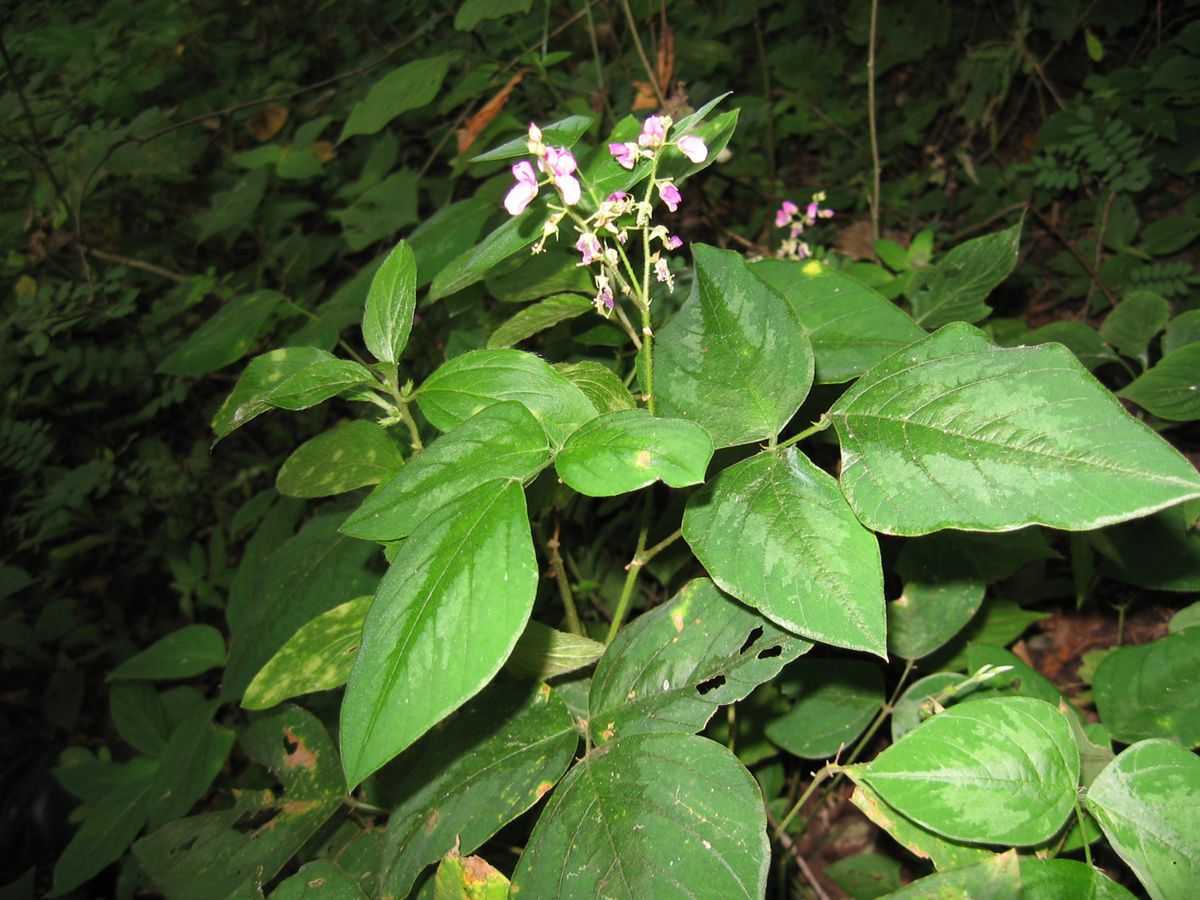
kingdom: Plantae
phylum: Tracheophyta
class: Magnoliopsida
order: Fabales
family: Fabaceae
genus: Desmodium
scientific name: Desmodium infractum
